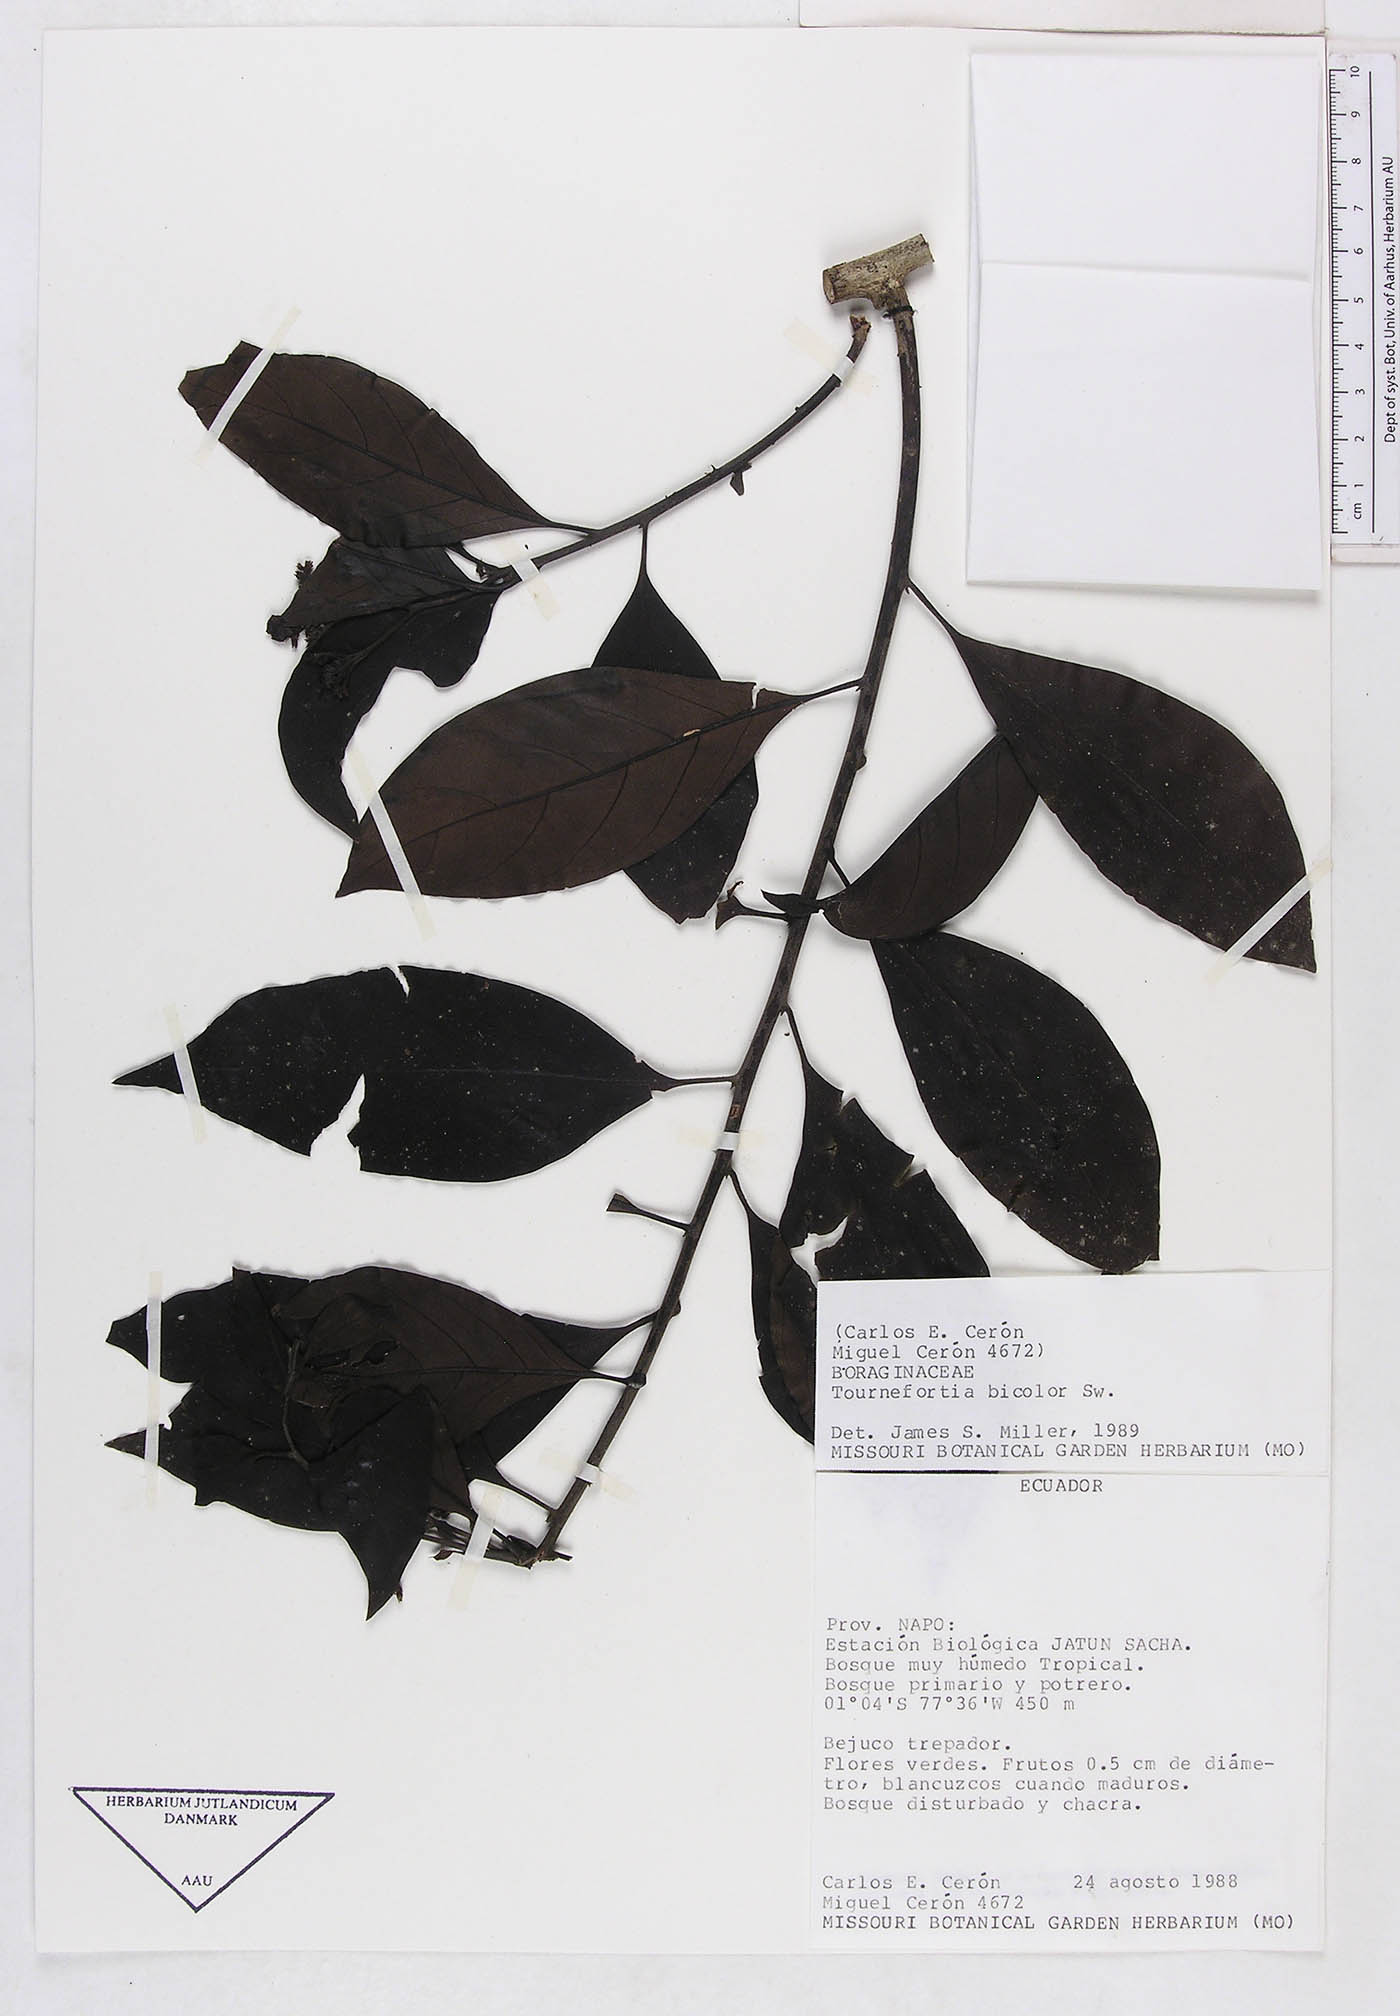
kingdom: Plantae
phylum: Tracheophyta
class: Magnoliopsida
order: Boraginales
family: Heliotropiaceae
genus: Heliotropium
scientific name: Heliotropium verdcourtii
